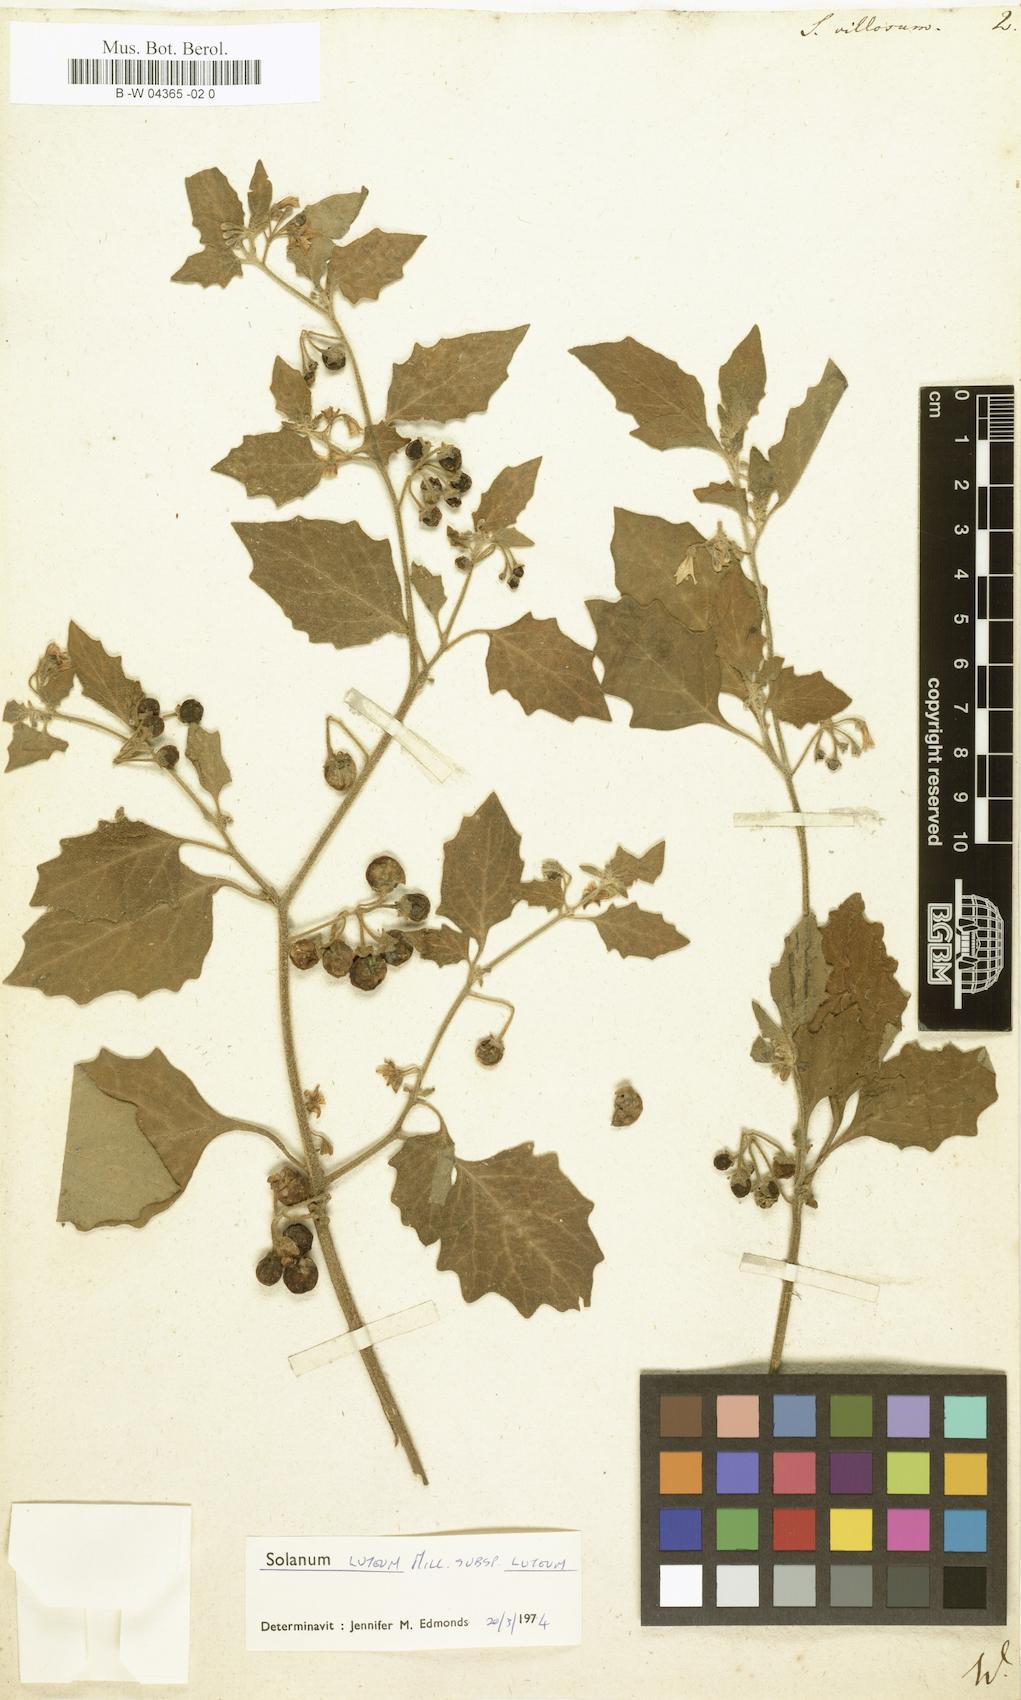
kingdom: Plantae
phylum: Tracheophyta
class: Magnoliopsida
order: Solanales
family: Solanaceae
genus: Solanum
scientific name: Solanum villosum
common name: Red nightshade
